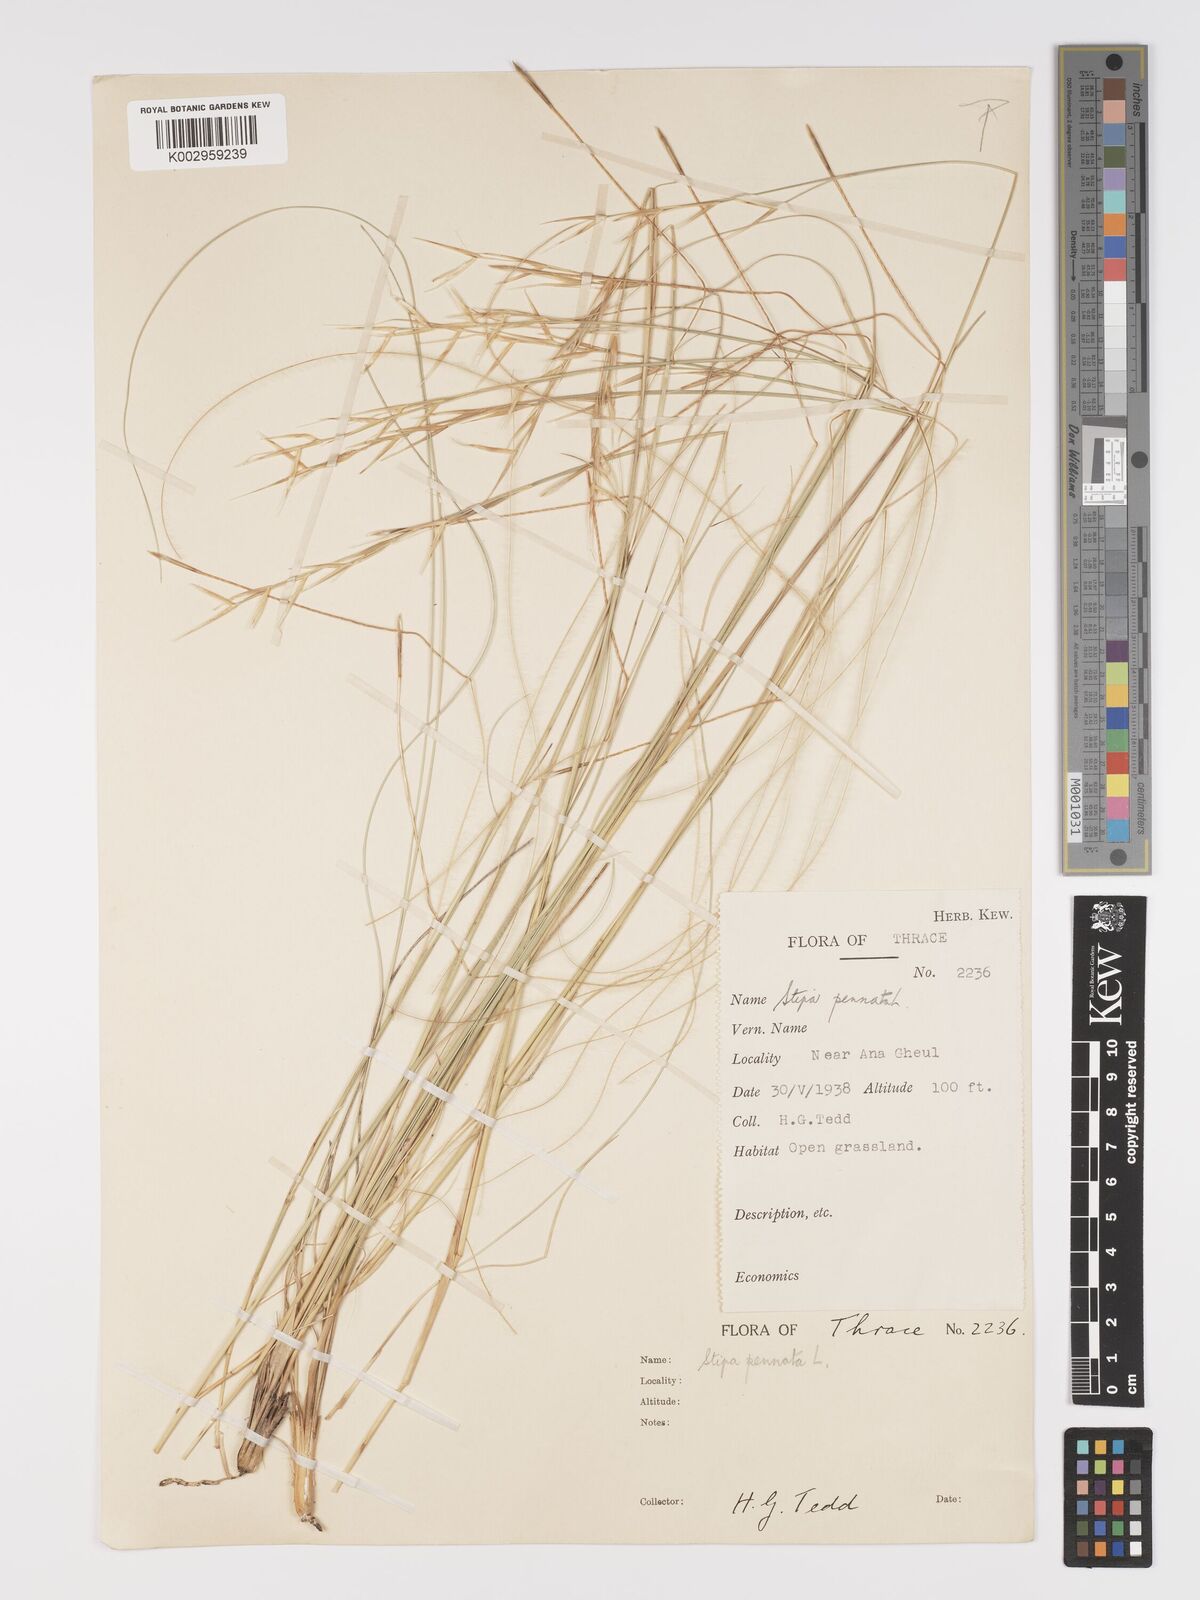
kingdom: Plantae
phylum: Tracheophyta
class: Liliopsida
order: Poales
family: Poaceae
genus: Stipa
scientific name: Stipa pennata
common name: European feather grass
